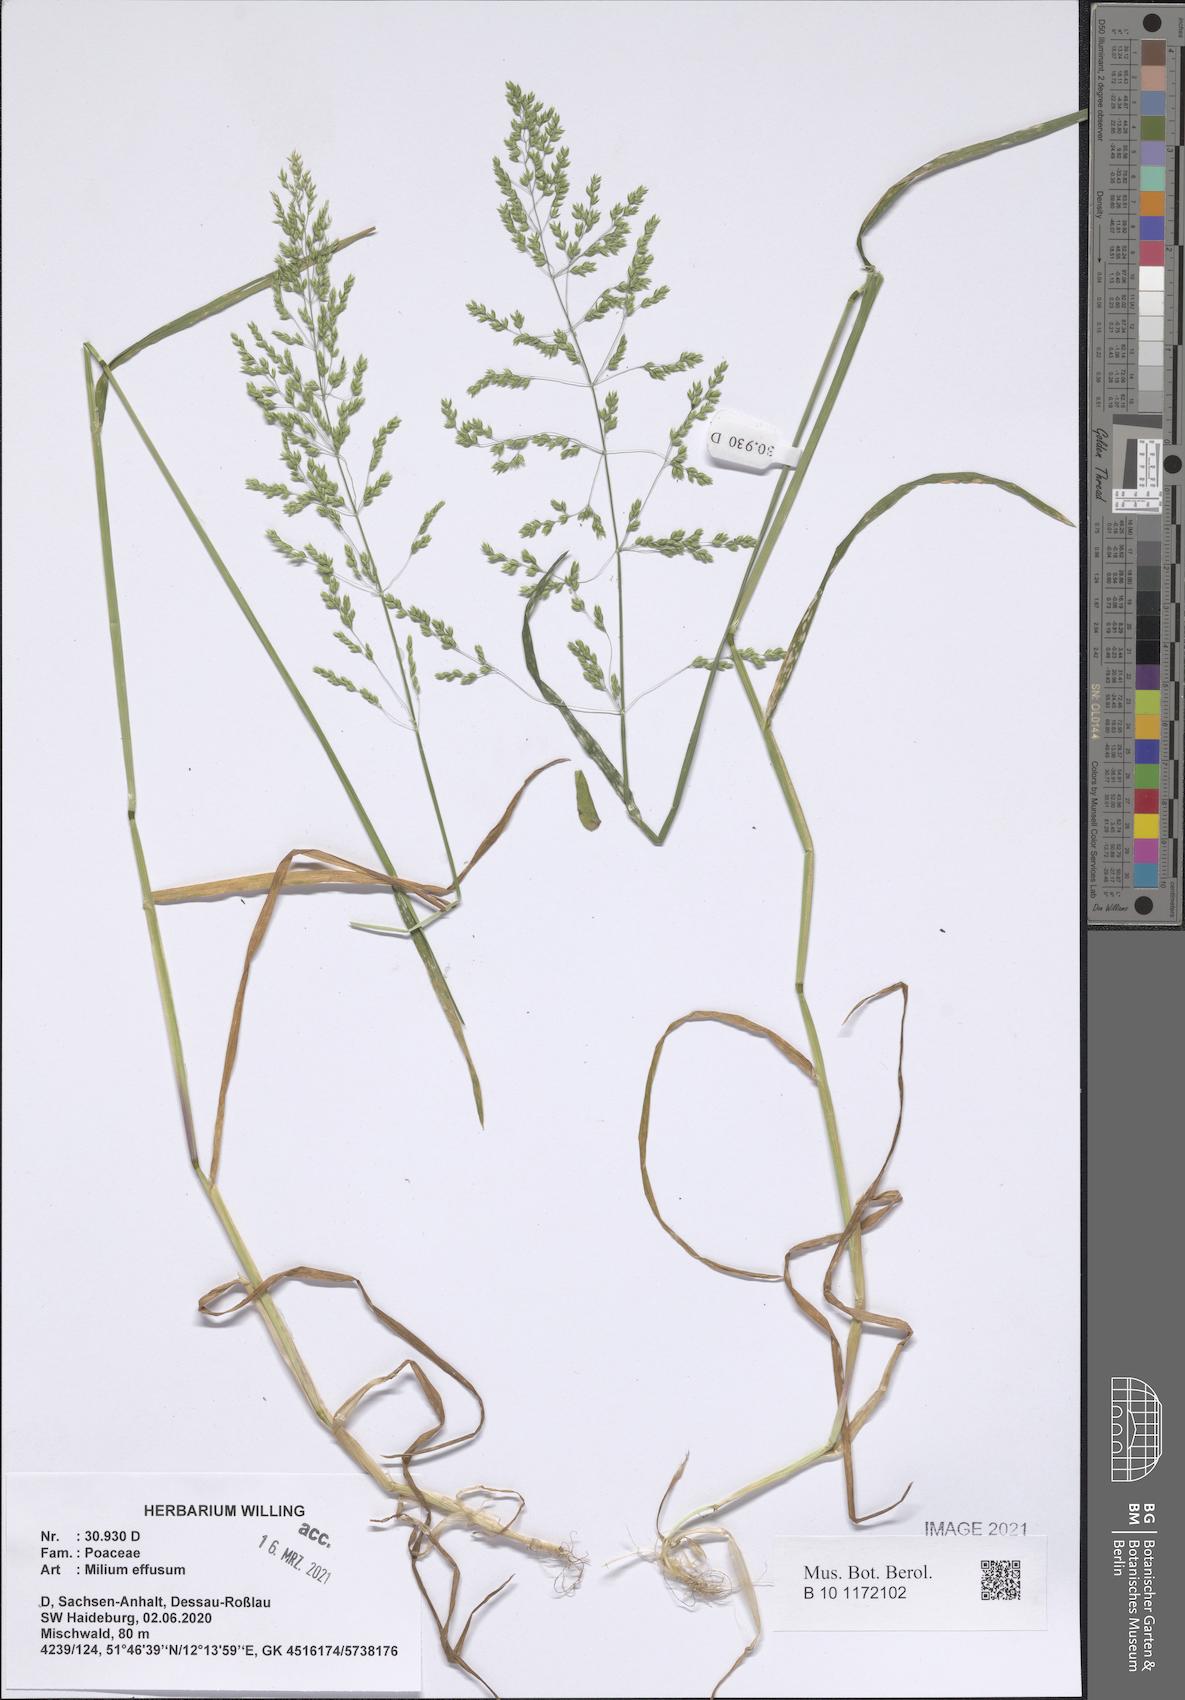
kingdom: Plantae
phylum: Tracheophyta
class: Liliopsida
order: Poales
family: Poaceae
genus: Milium
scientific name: Milium effusum
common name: Wood millet
